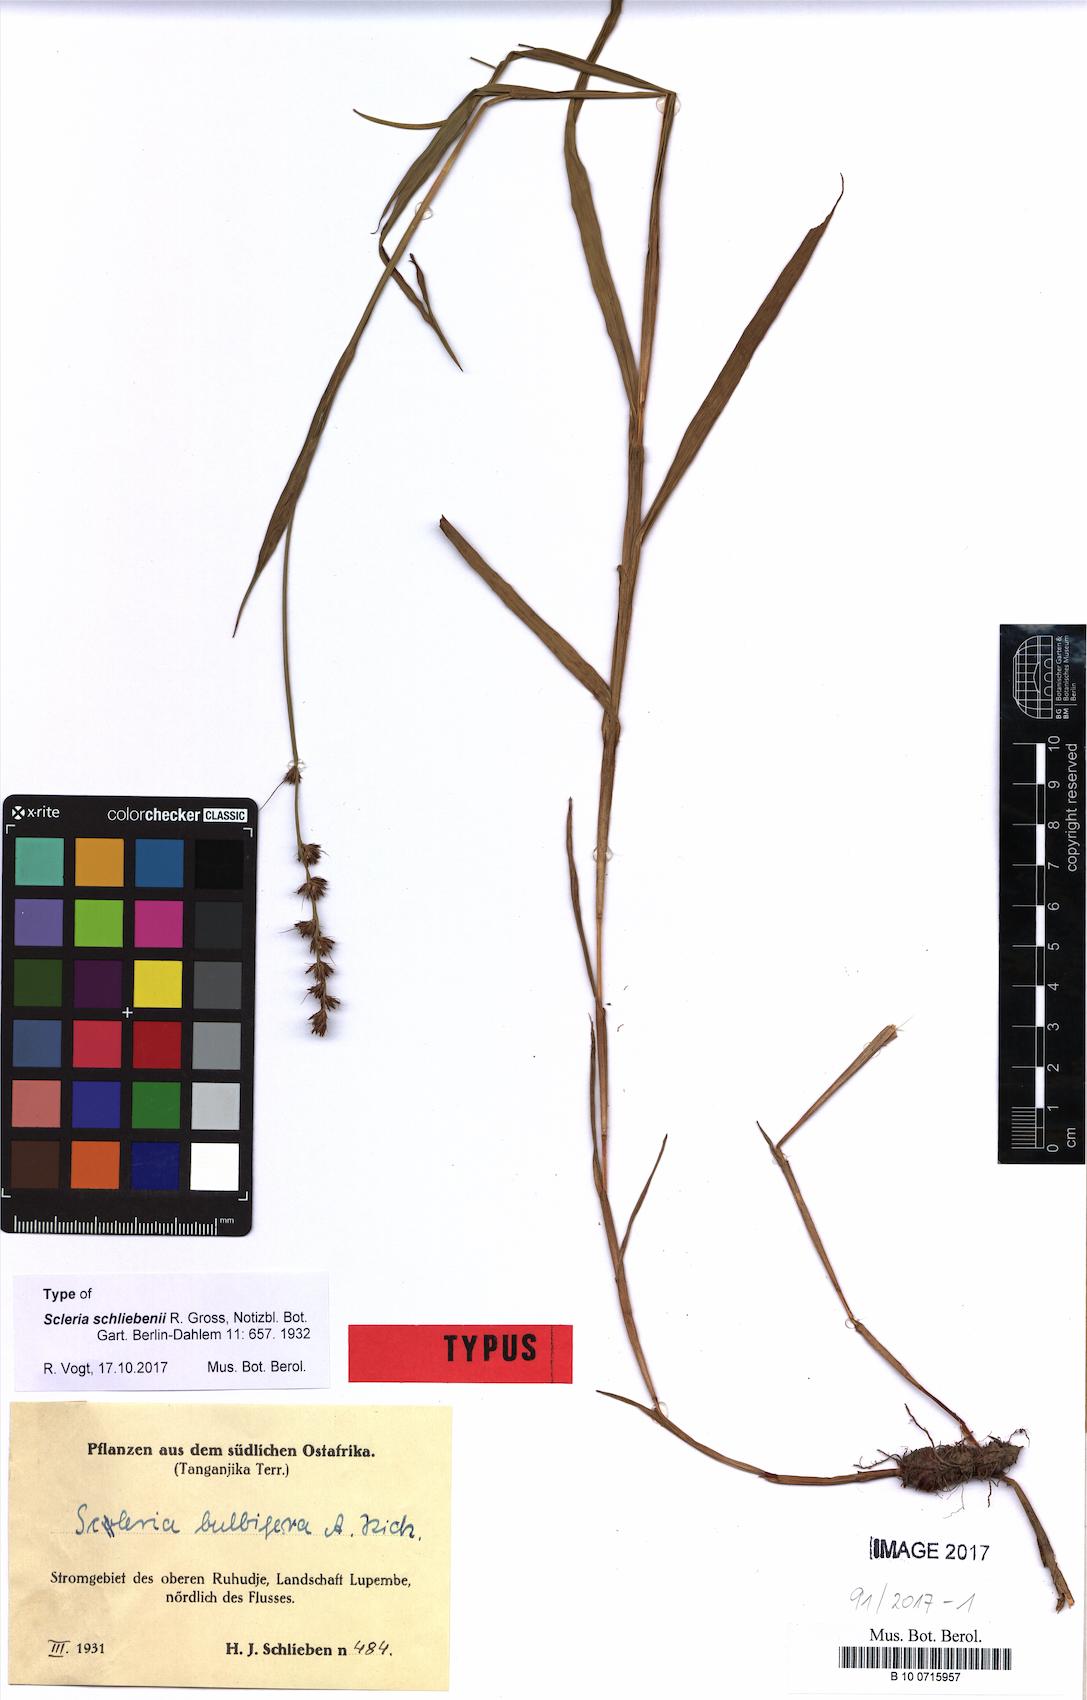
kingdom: Plantae
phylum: Tracheophyta
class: Liliopsida
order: Poales
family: Cyperaceae
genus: Scleria
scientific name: Scleria bulbifera
